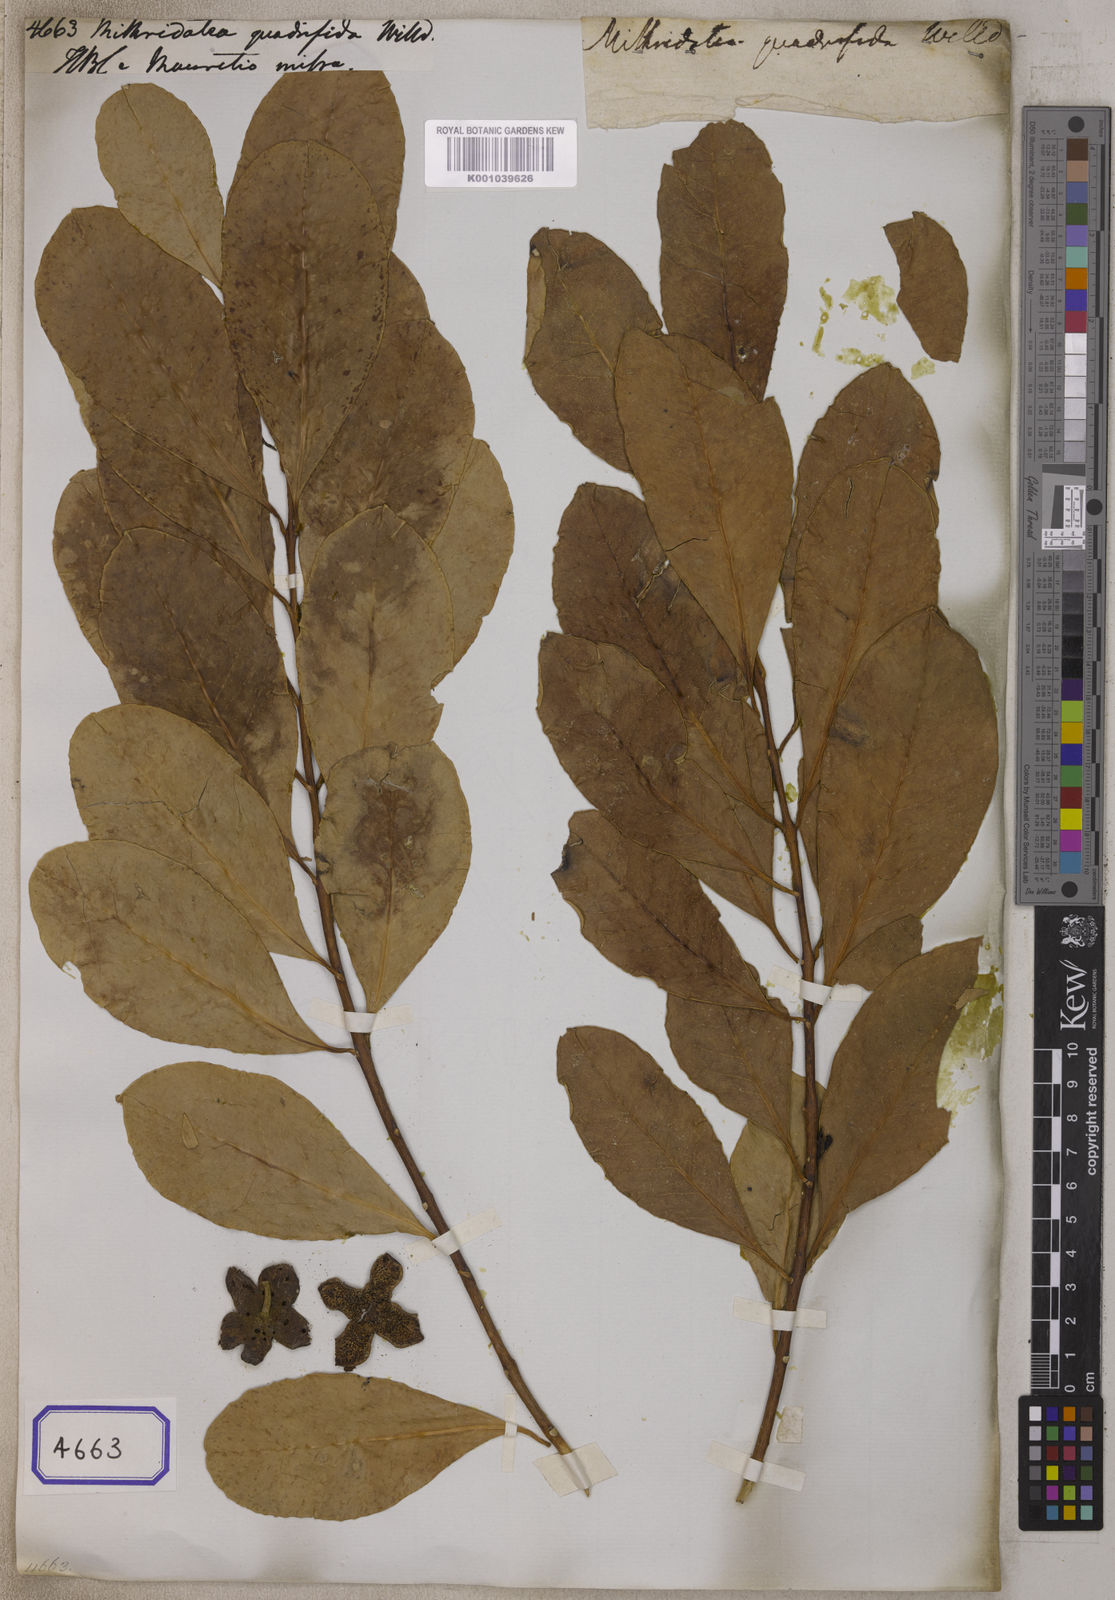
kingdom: Plantae
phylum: Tracheophyta
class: Magnoliopsida
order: Laurales
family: Monimiaceae
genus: Tambourissa
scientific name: Tambourissa
